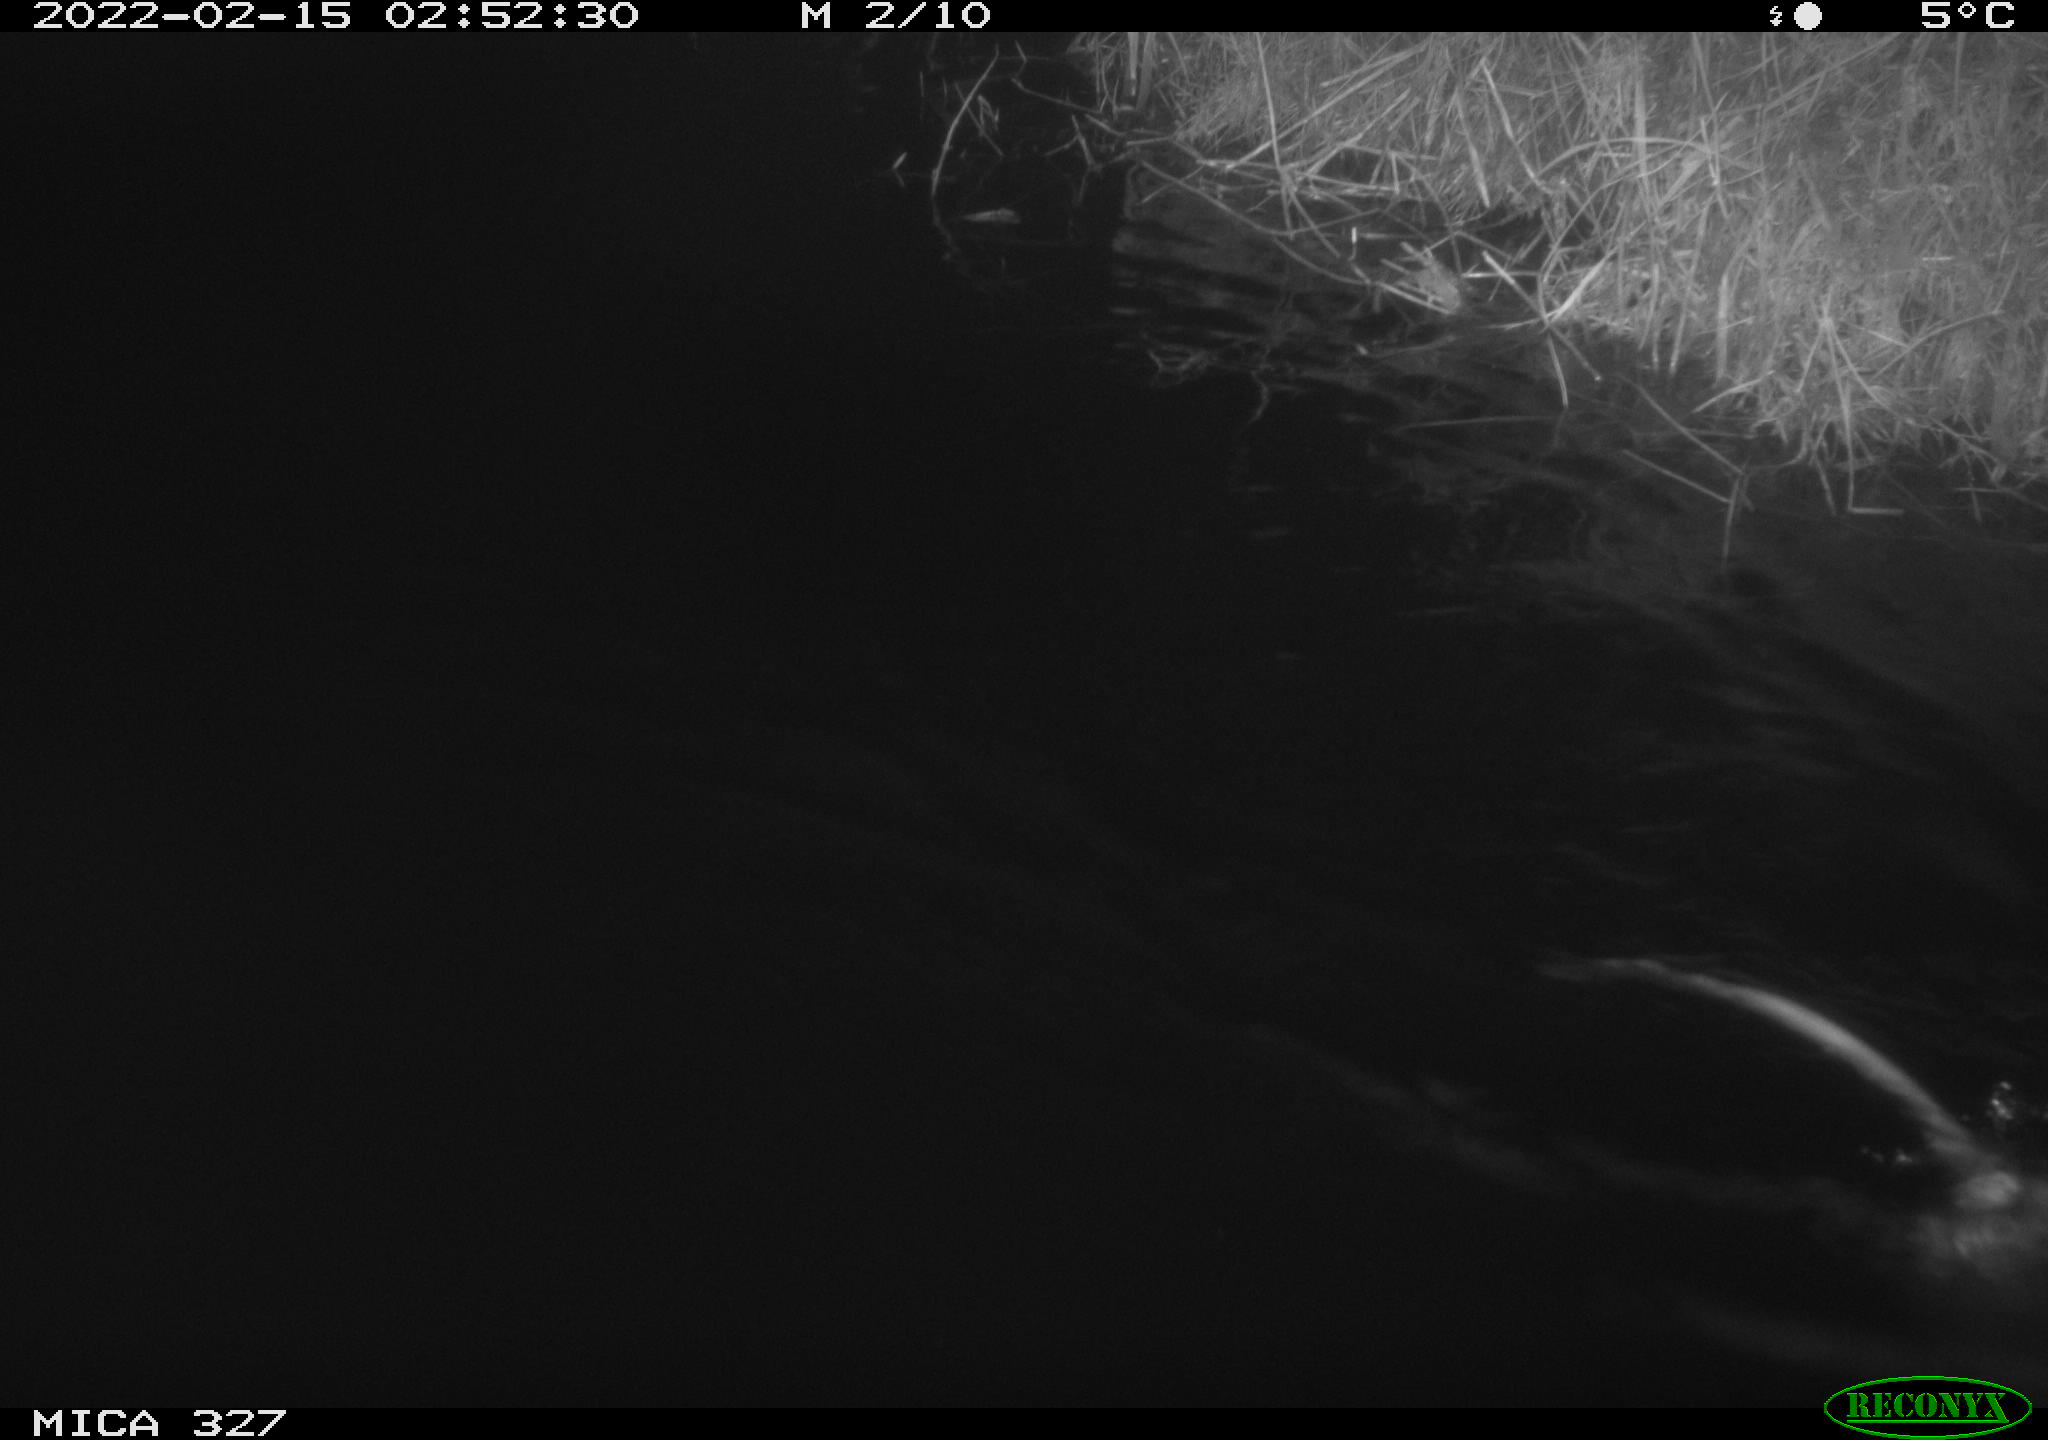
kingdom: Animalia
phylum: Chordata
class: Mammalia
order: Rodentia
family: Cricetidae
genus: Ondatra
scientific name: Ondatra zibethicus
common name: Muskrat
